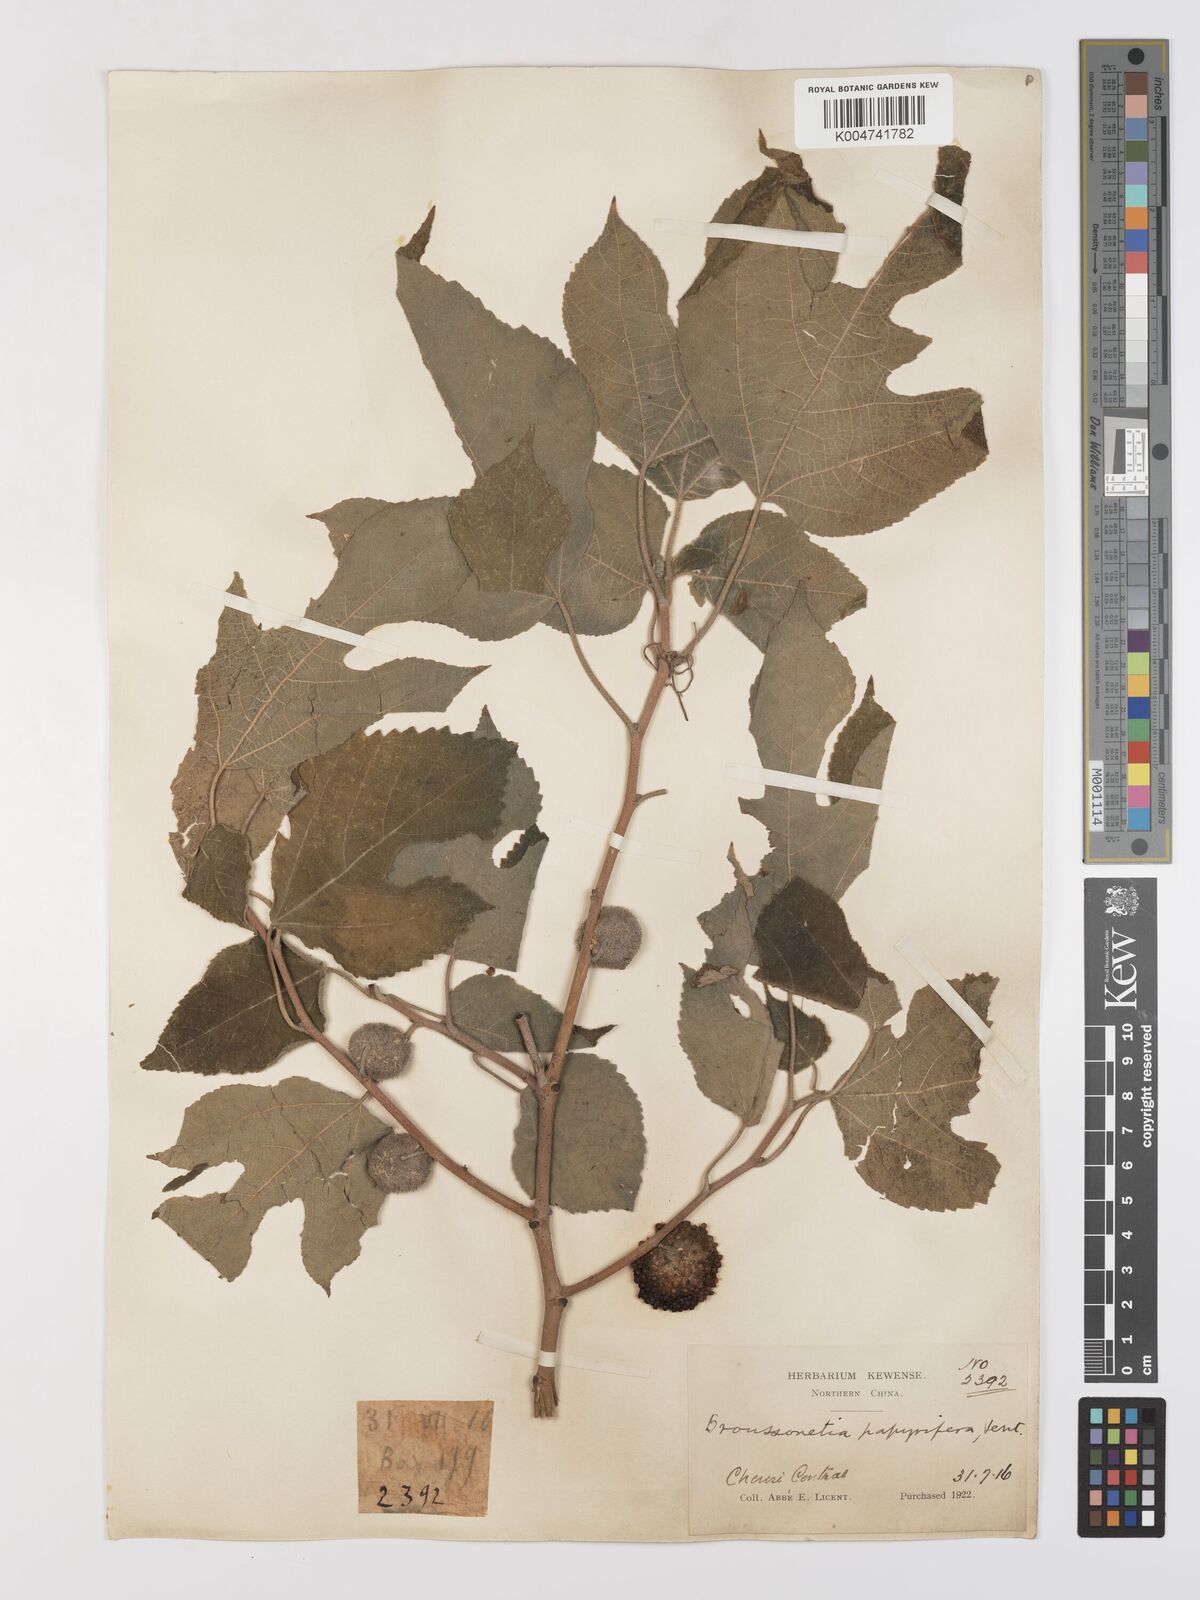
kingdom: Plantae
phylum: Tracheophyta
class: Magnoliopsida
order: Rosales
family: Moraceae
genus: Broussonetia
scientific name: Broussonetia papyrifera
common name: Paper mulberry
